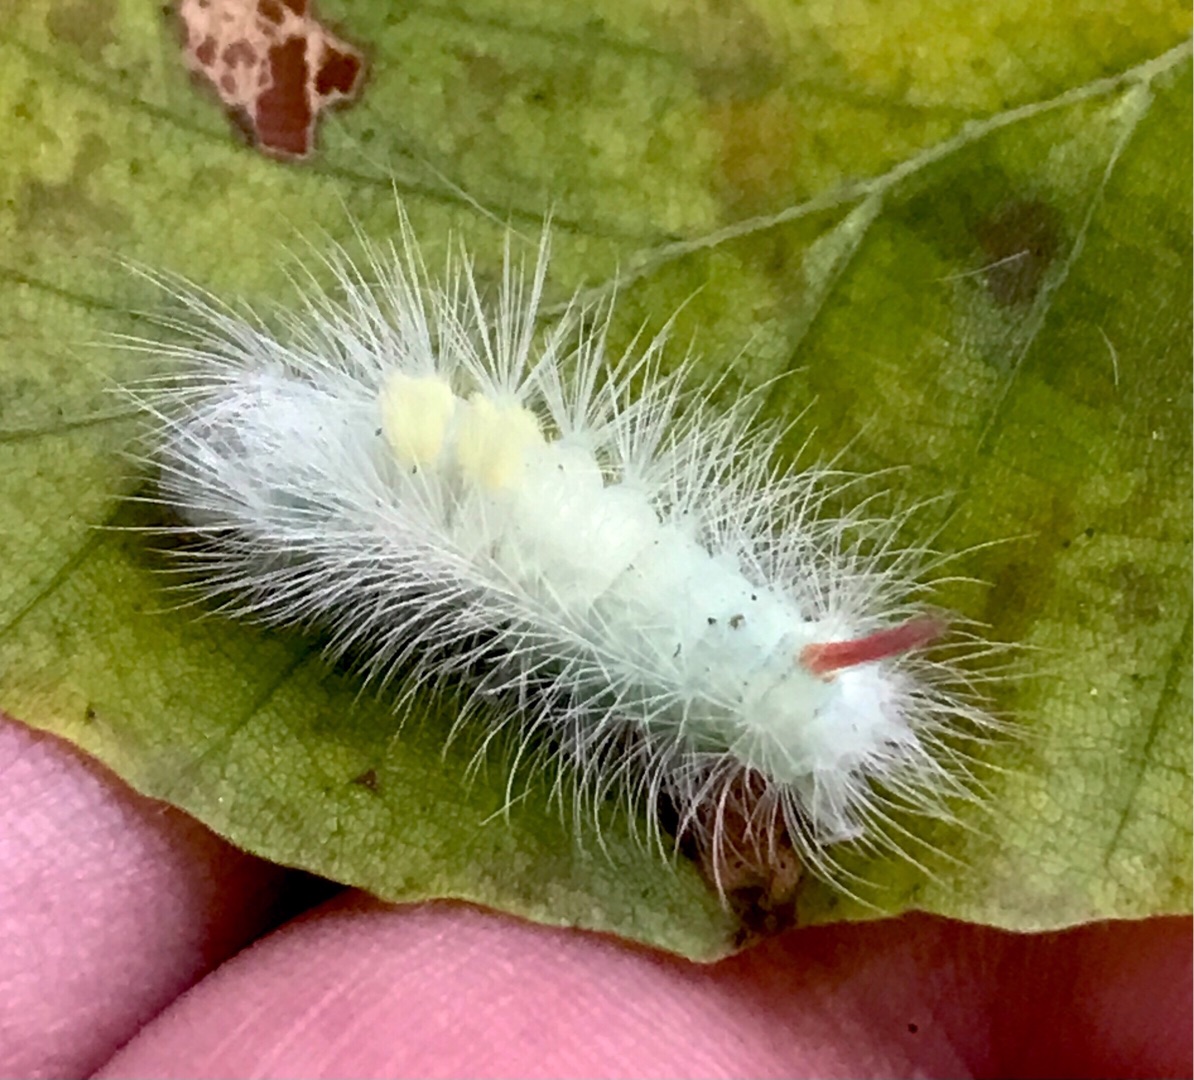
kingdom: Animalia
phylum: Arthropoda
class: Insecta
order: Lepidoptera
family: Erebidae
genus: Calliteara
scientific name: Calliteara pudibunda
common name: Bøgenonne
